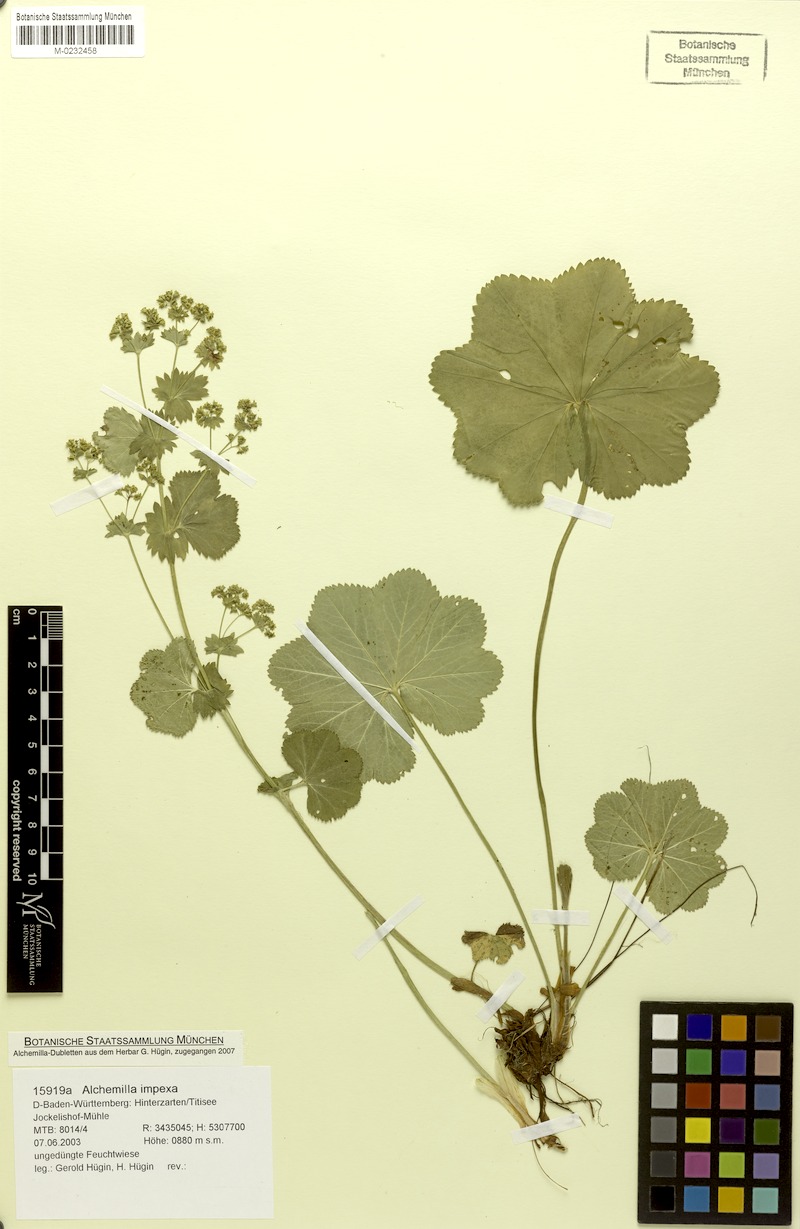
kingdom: Plantae
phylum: Tracheophyta
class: Magnoliopsida
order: Rosales
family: Rosaceae
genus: Alchemilla
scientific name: Alchemilla impexa
